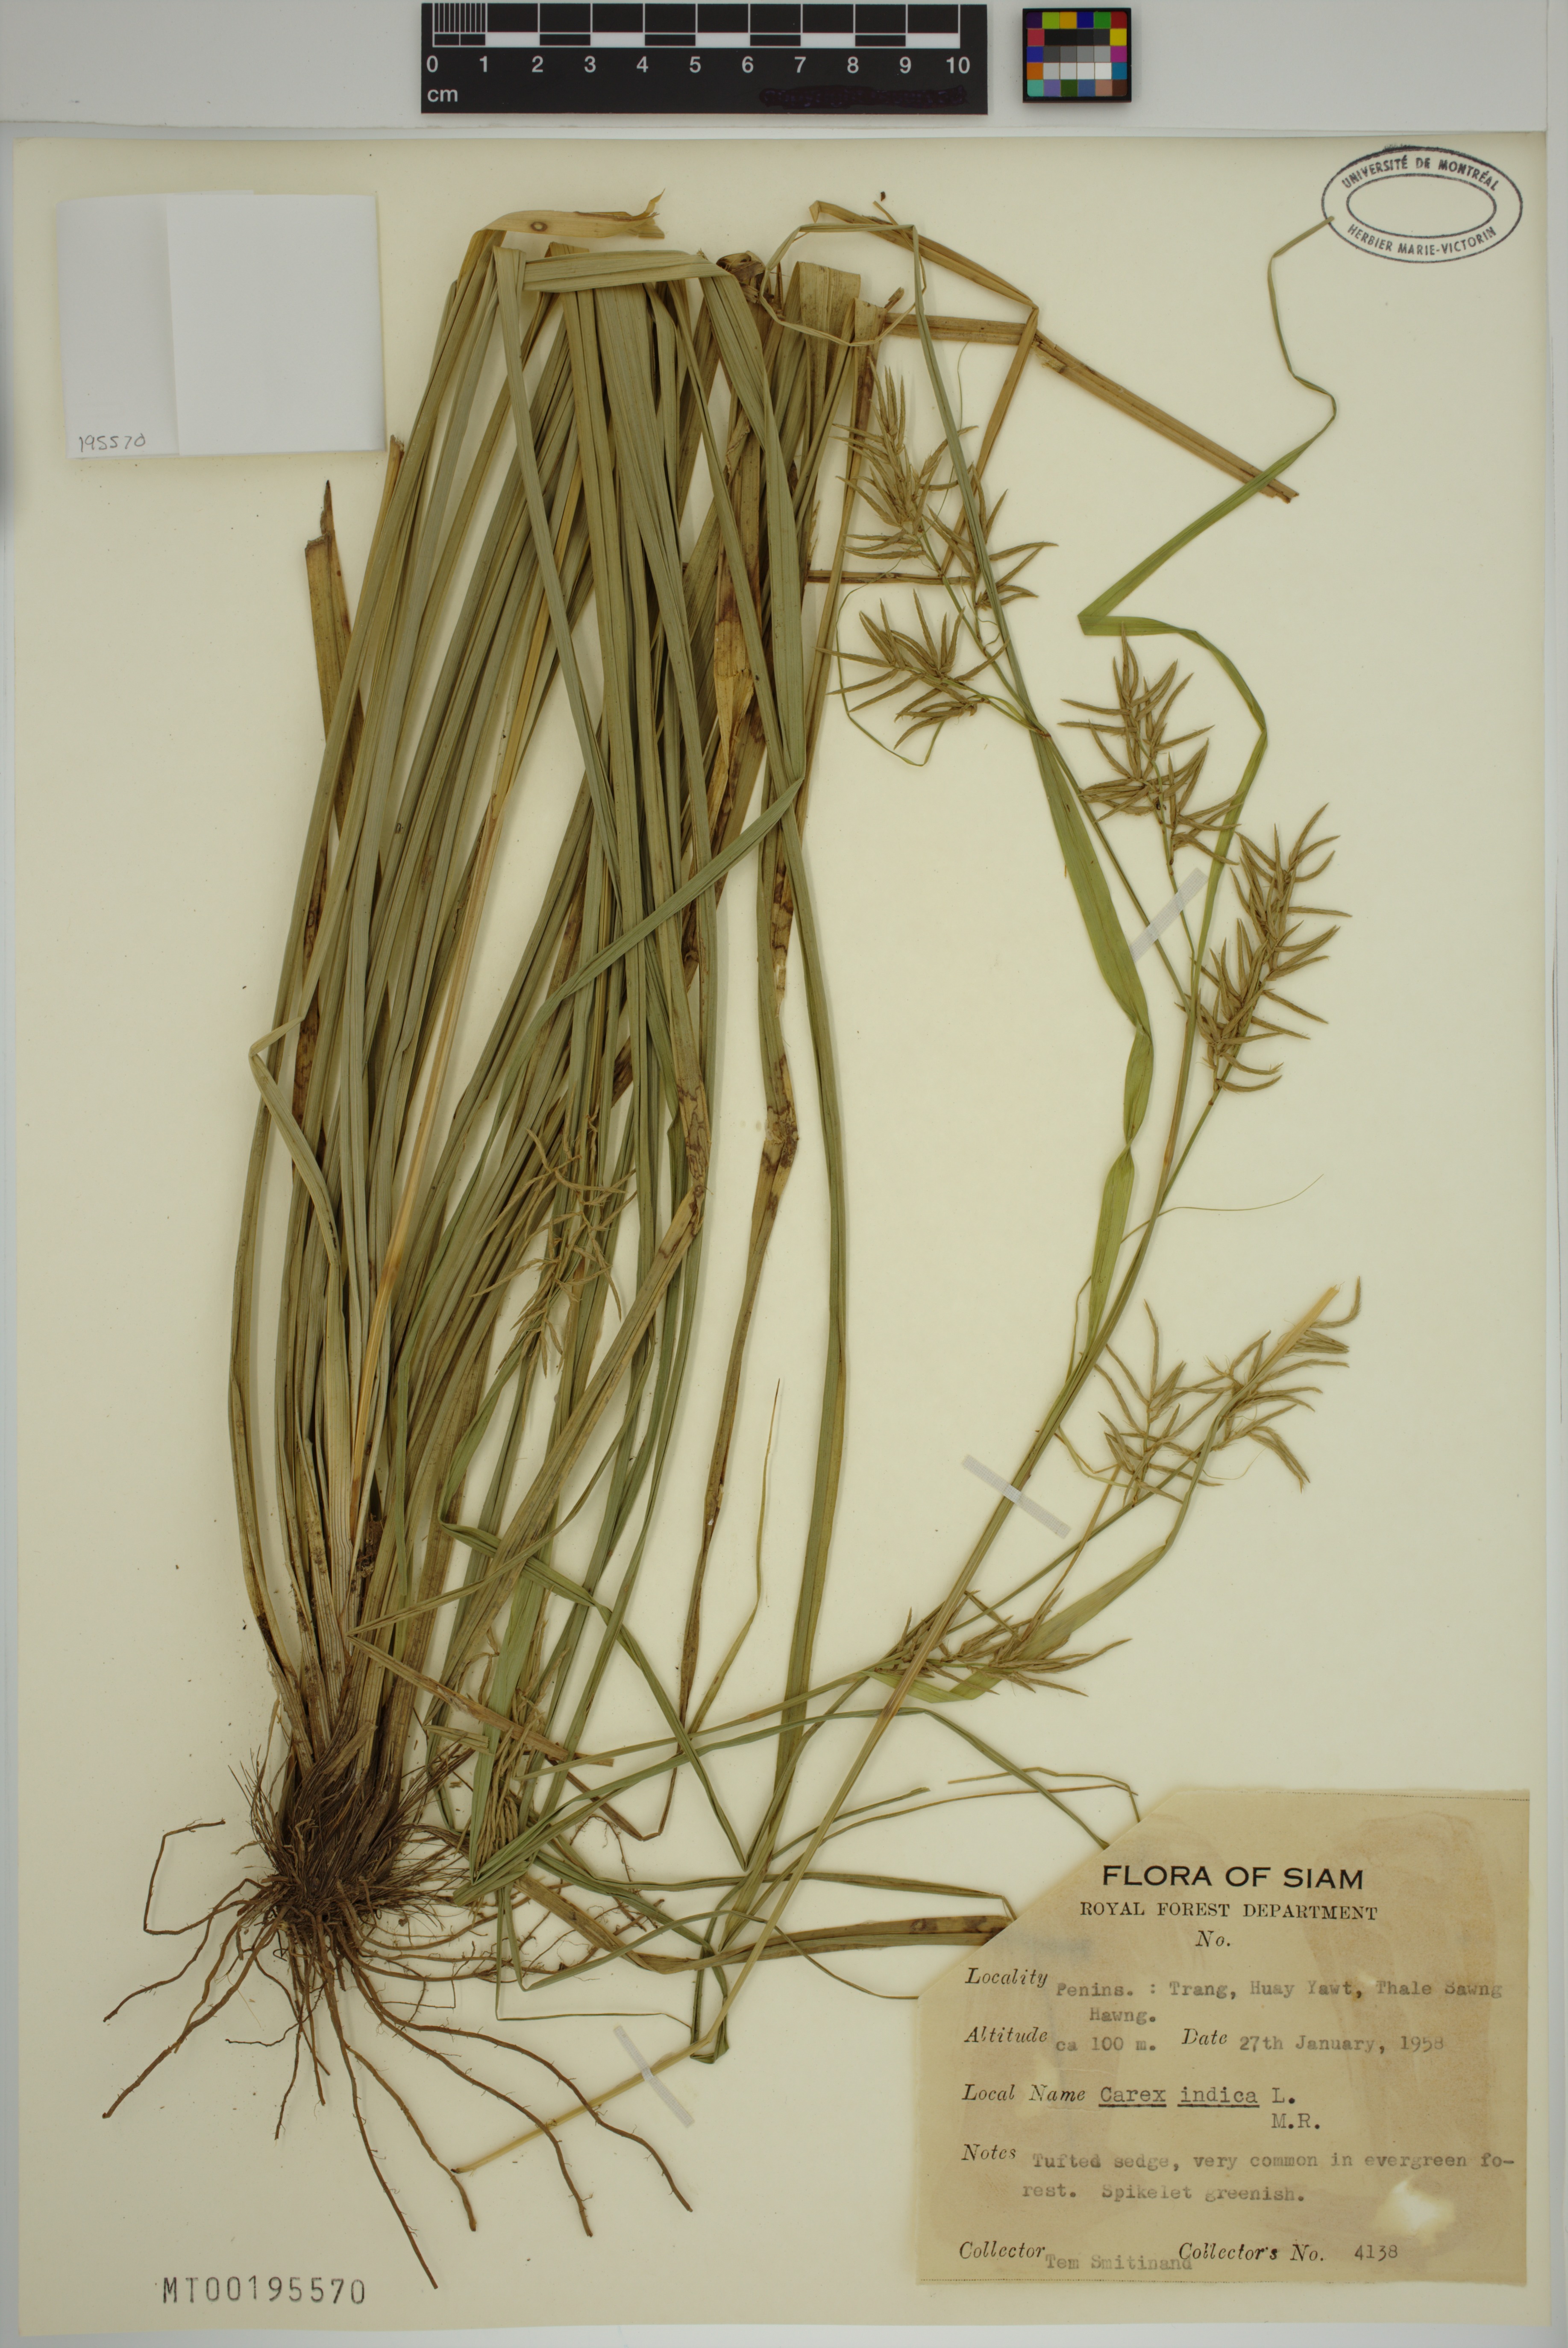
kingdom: Plantae
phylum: Tracheophyta
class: Liliopsida
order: Poales
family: Cyperaceae
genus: Carex
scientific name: Carex indica
